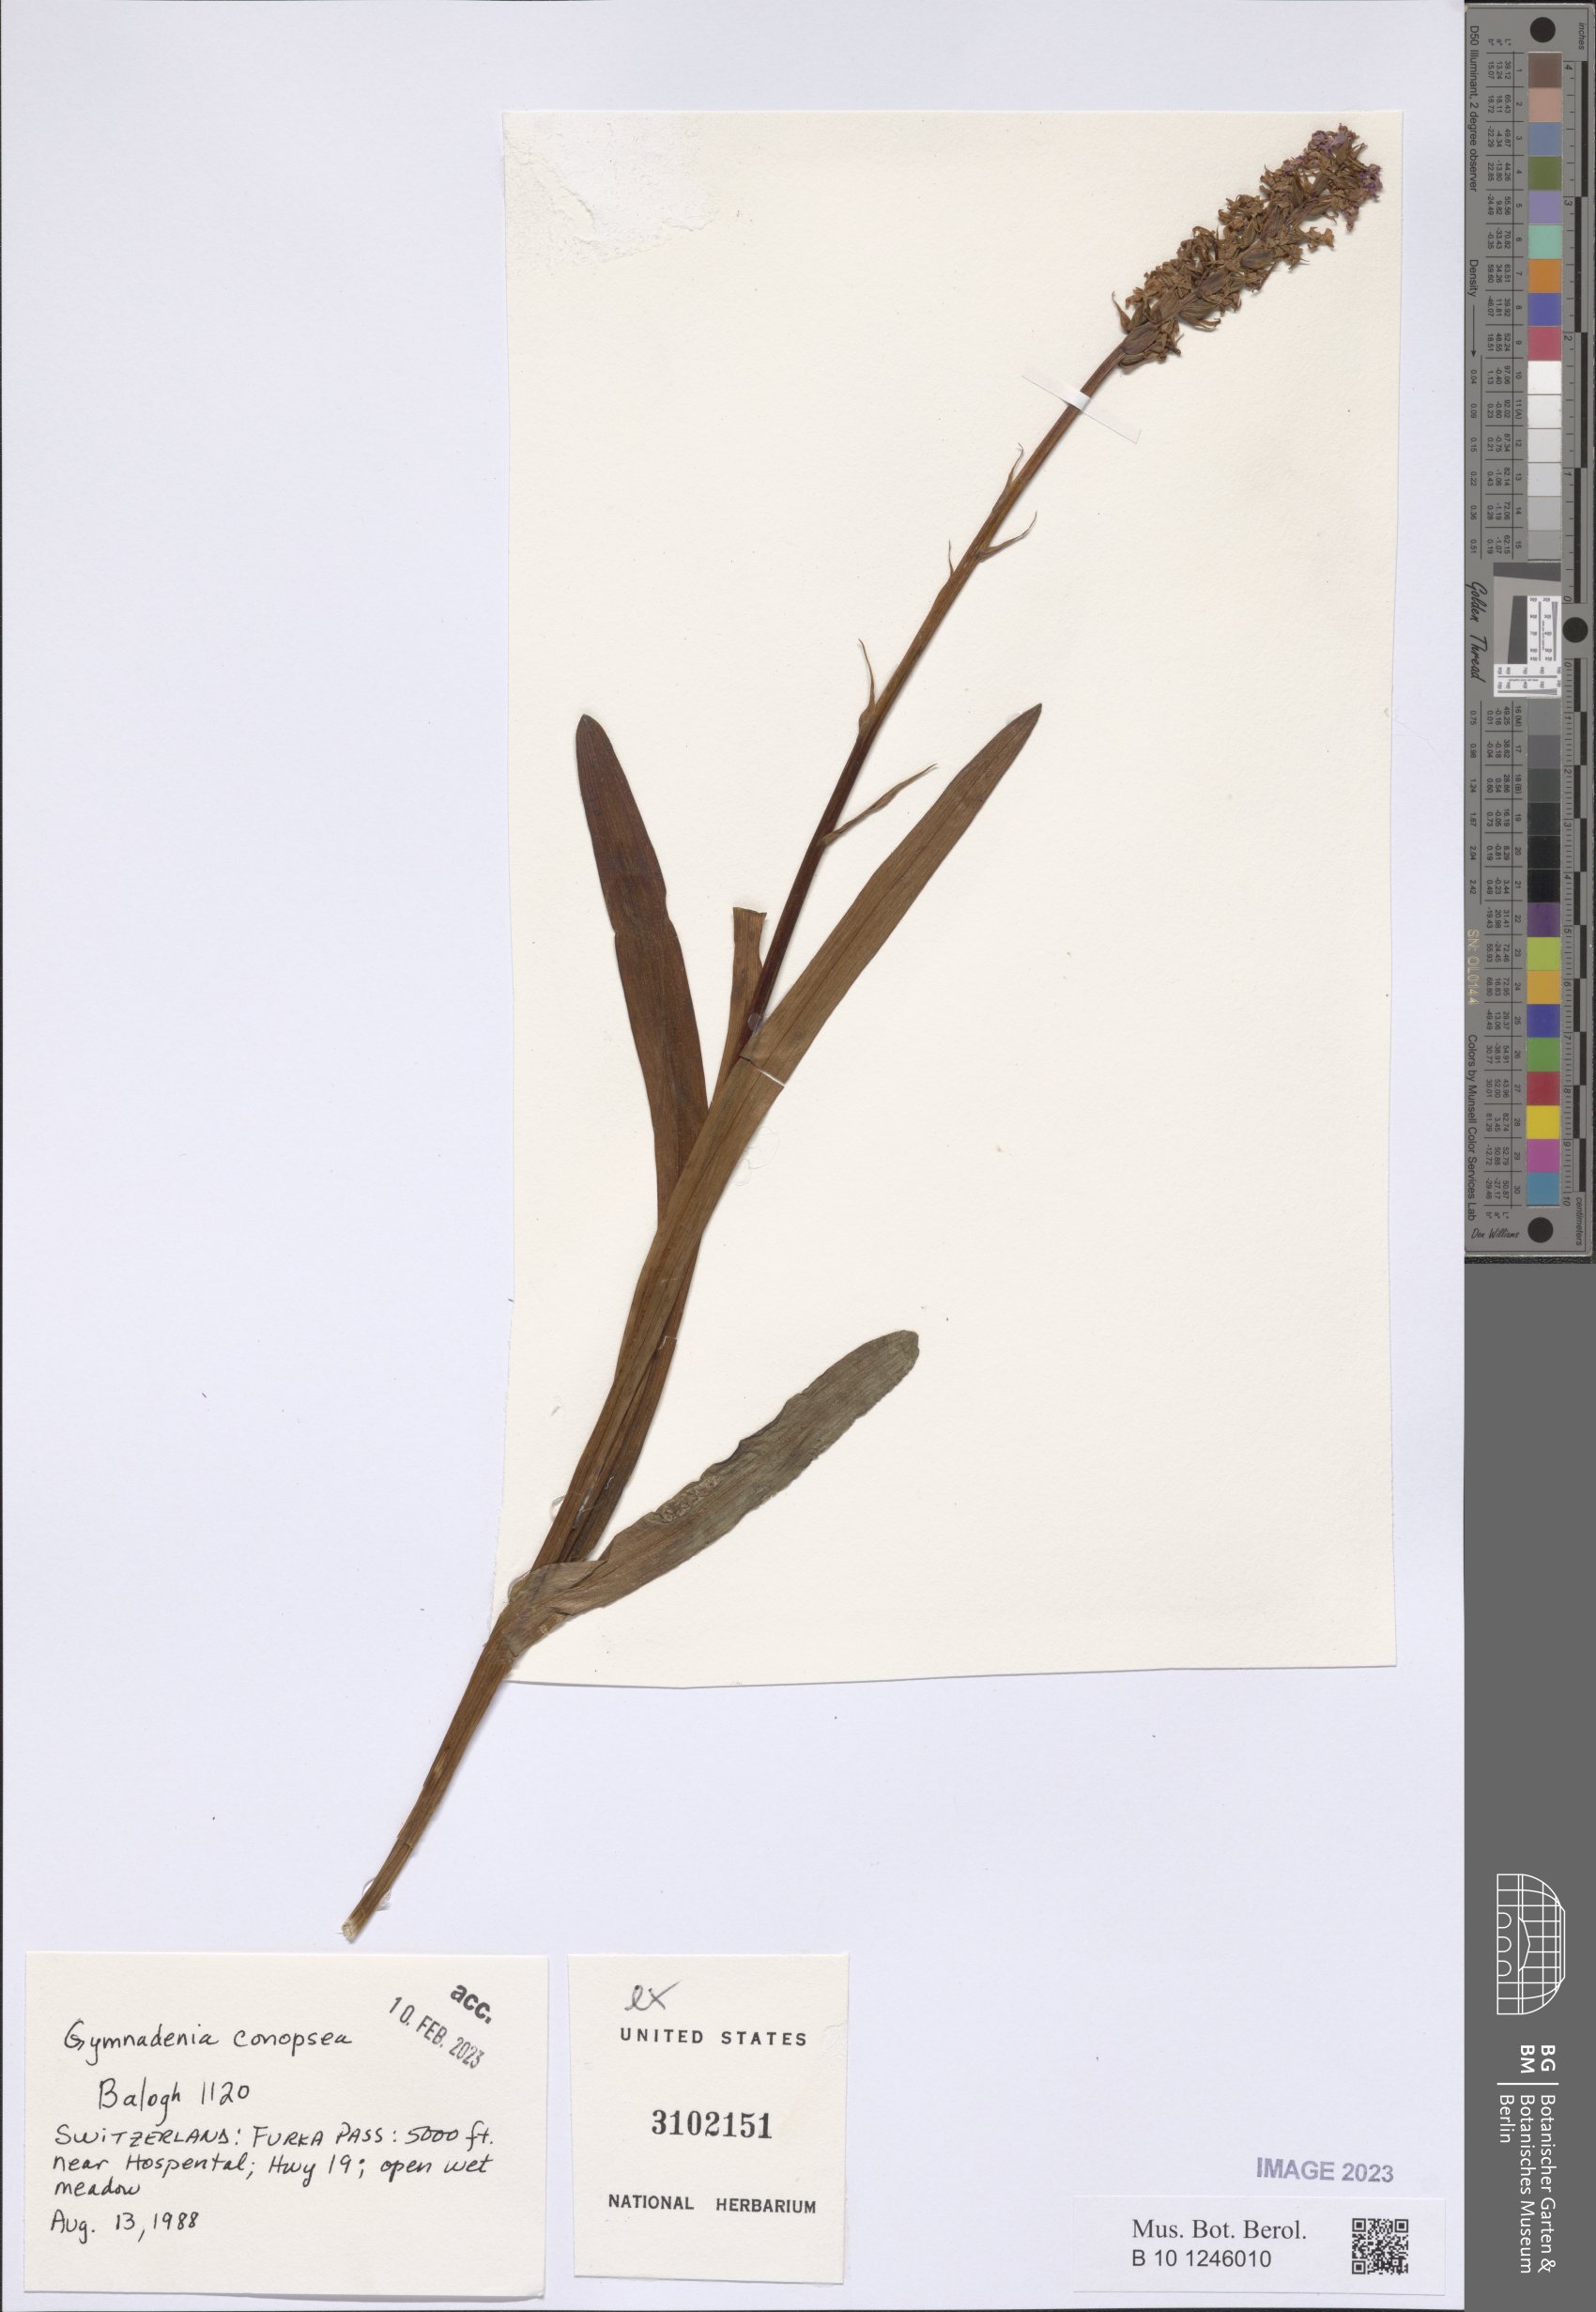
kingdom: Plantae
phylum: Tracheophyta
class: Liliopsida
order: Asparagales
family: Orchidaceae
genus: Gymnadenia
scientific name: Gymnadenia conopsea
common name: Fragrant orchid
